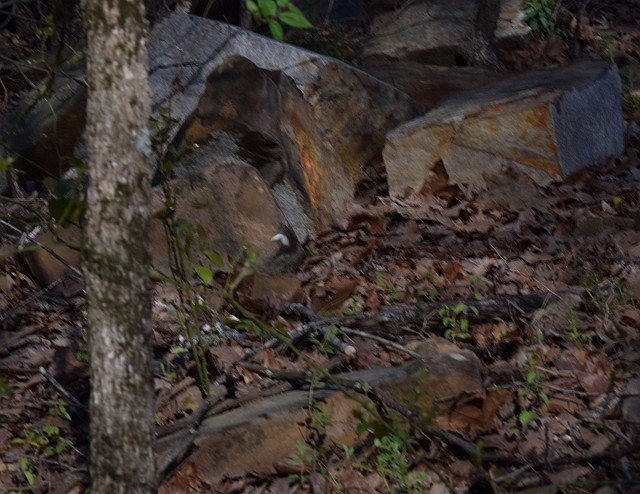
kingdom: Animalia
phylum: Arthropoda
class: Insecta
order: Lepidoptera
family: Pieridae
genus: Anthocharis
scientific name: Anthocharis midea
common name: Falcate Orangetip
